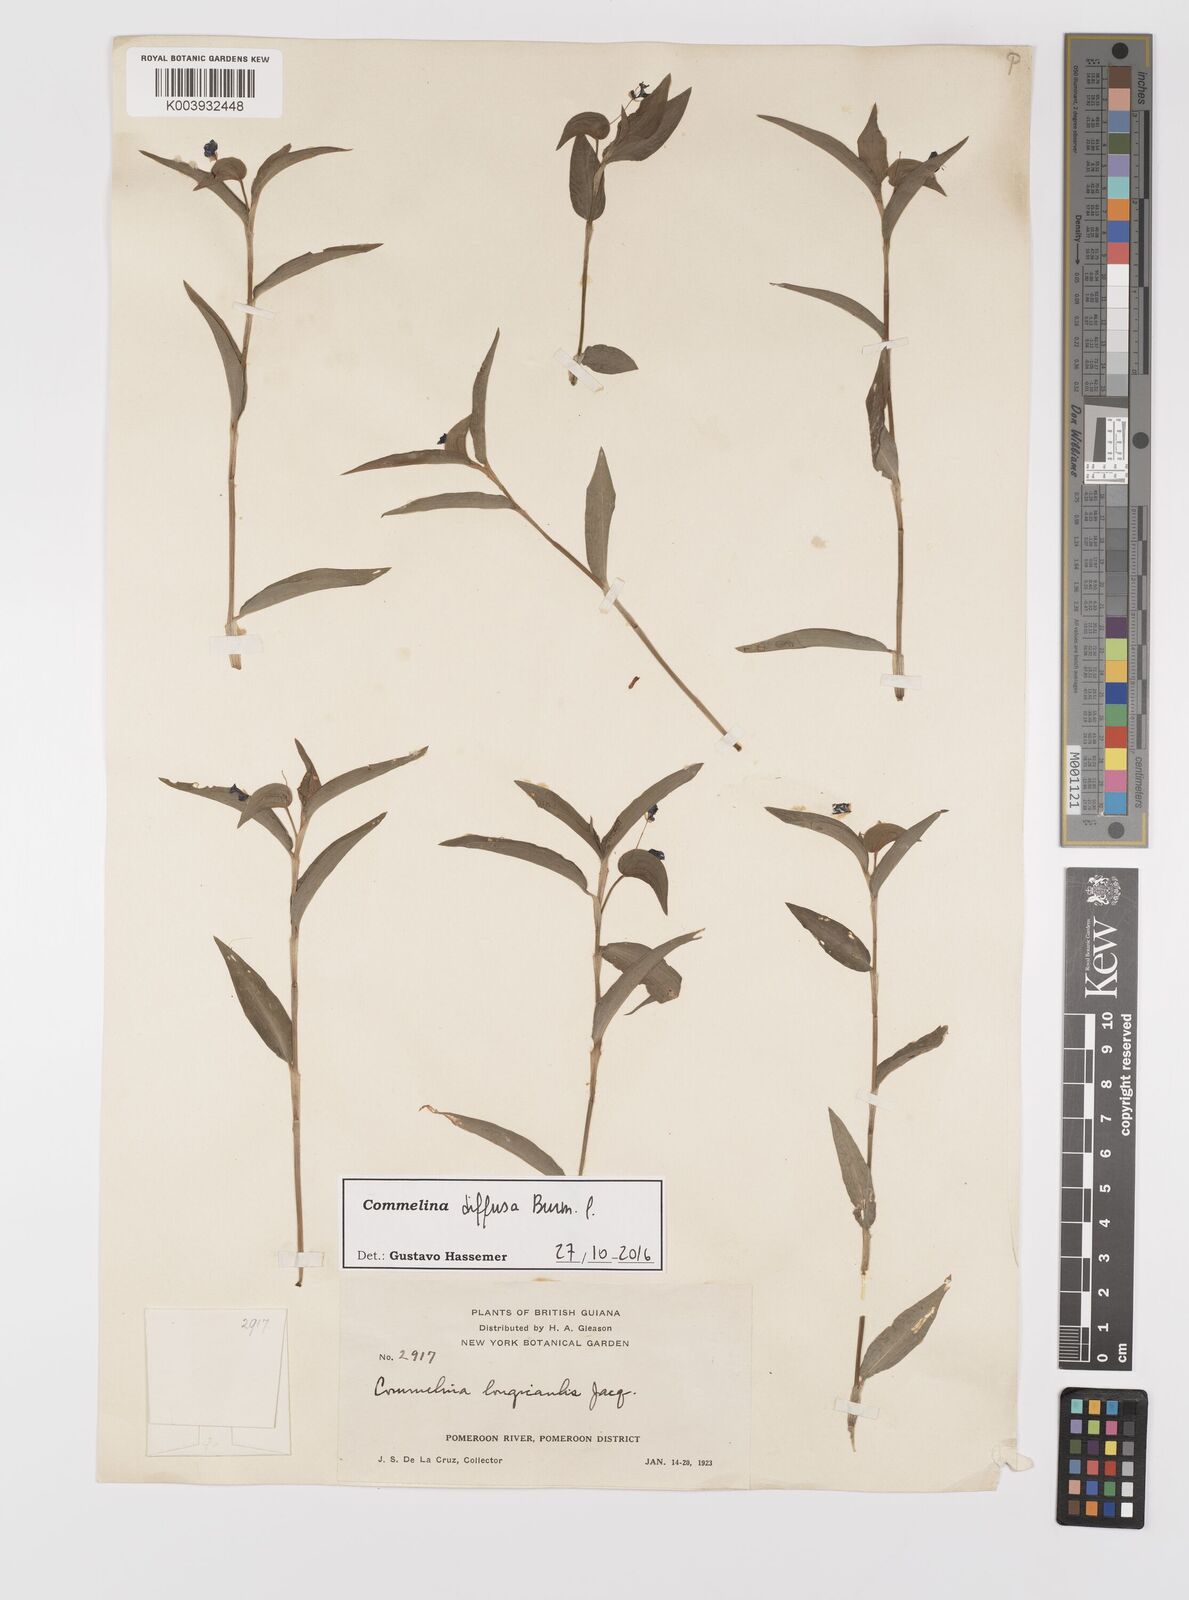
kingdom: Plantae
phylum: Tracheophyta
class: Liliopsida
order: Commelinales
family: Commelinaceae
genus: Commelina
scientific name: Commelina diffusa
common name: Climbing dayflower
